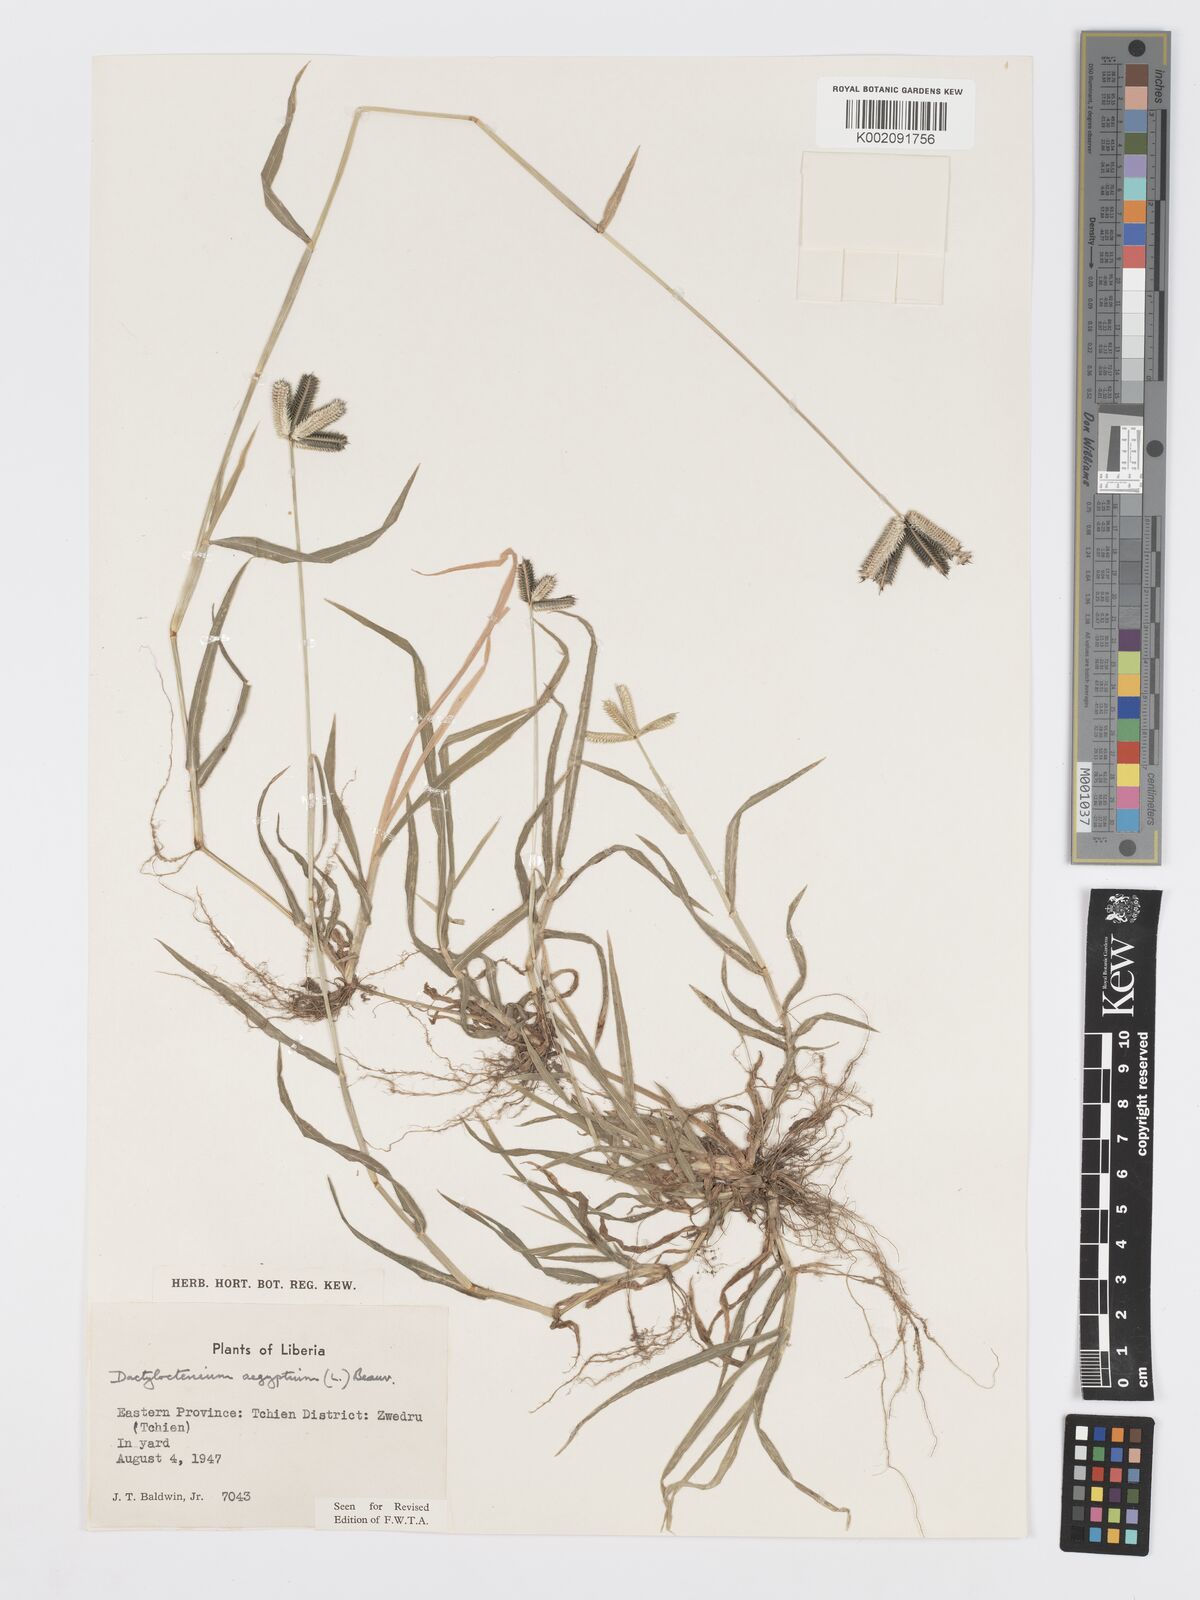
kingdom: Plantae
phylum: Tracheophyta
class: Liliopsida
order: Poales
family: Poaceae
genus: Dactyloctenium
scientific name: Dactyloctenium aegyptium
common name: Egyptian grass
